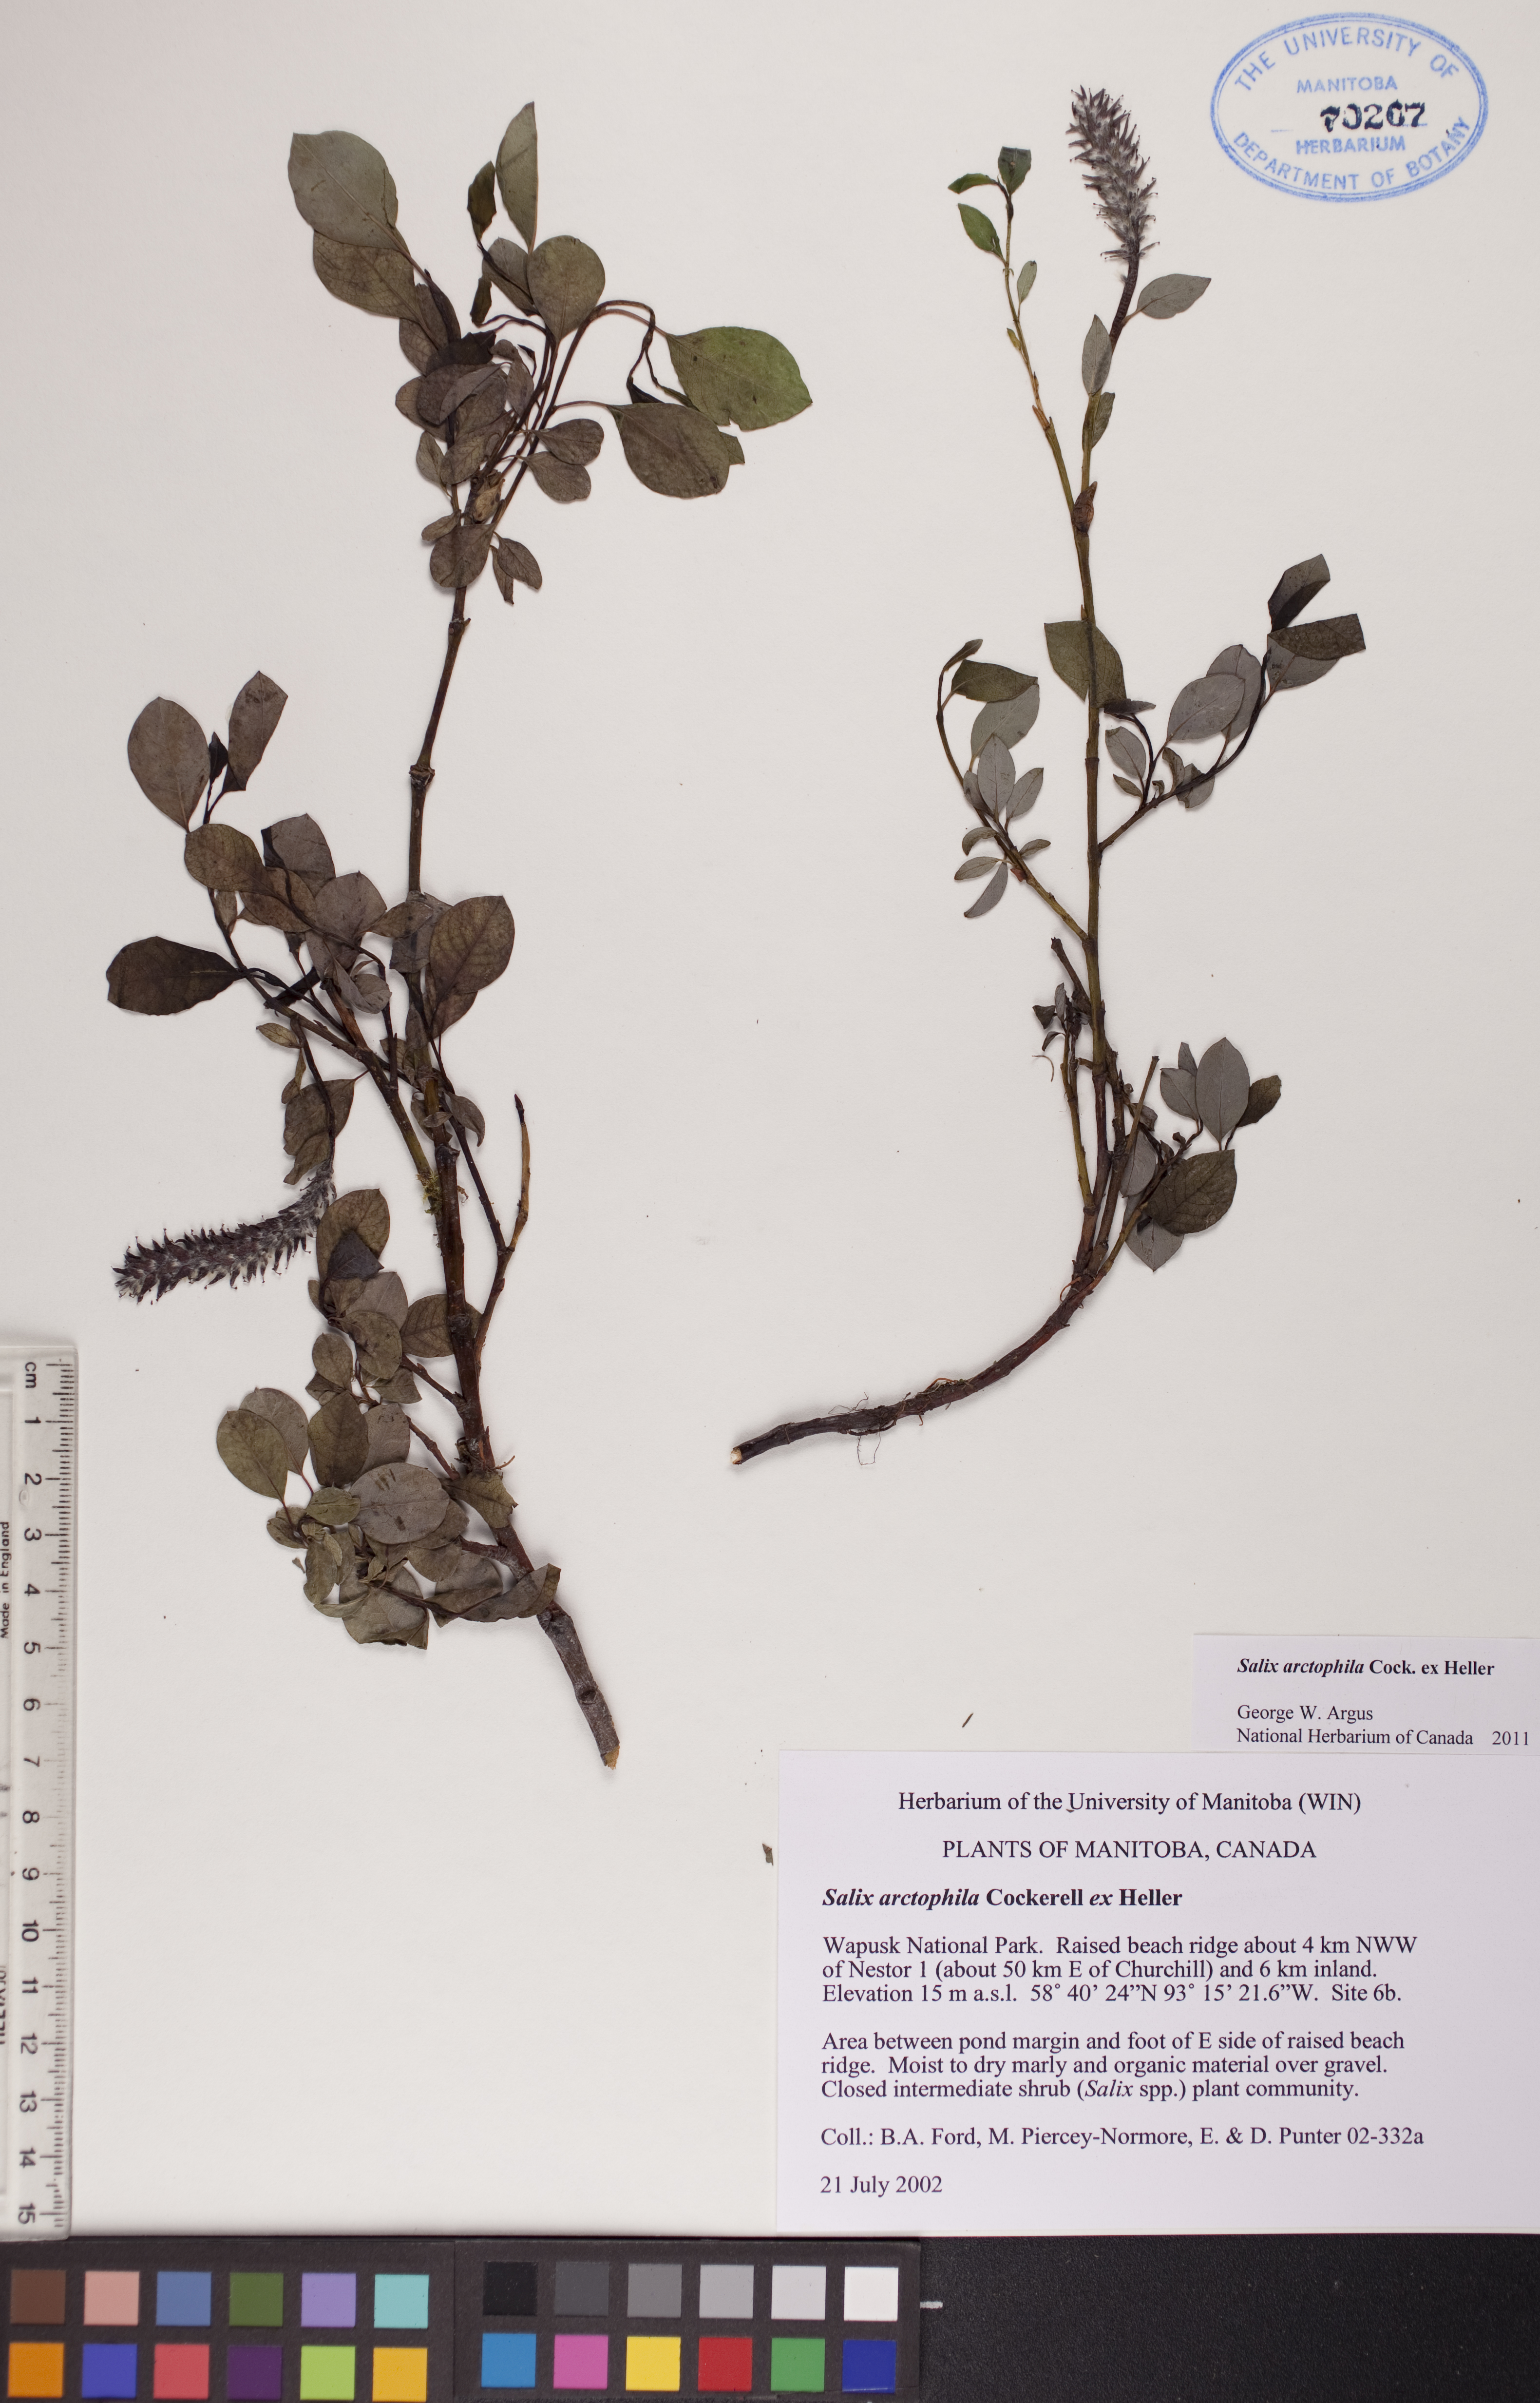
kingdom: Plantae
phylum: Tracheophyta
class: Magnoliopsida
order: Malpighiales
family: Salicaceae
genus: Salix
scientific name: Salix arctophila
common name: Greenland willow
